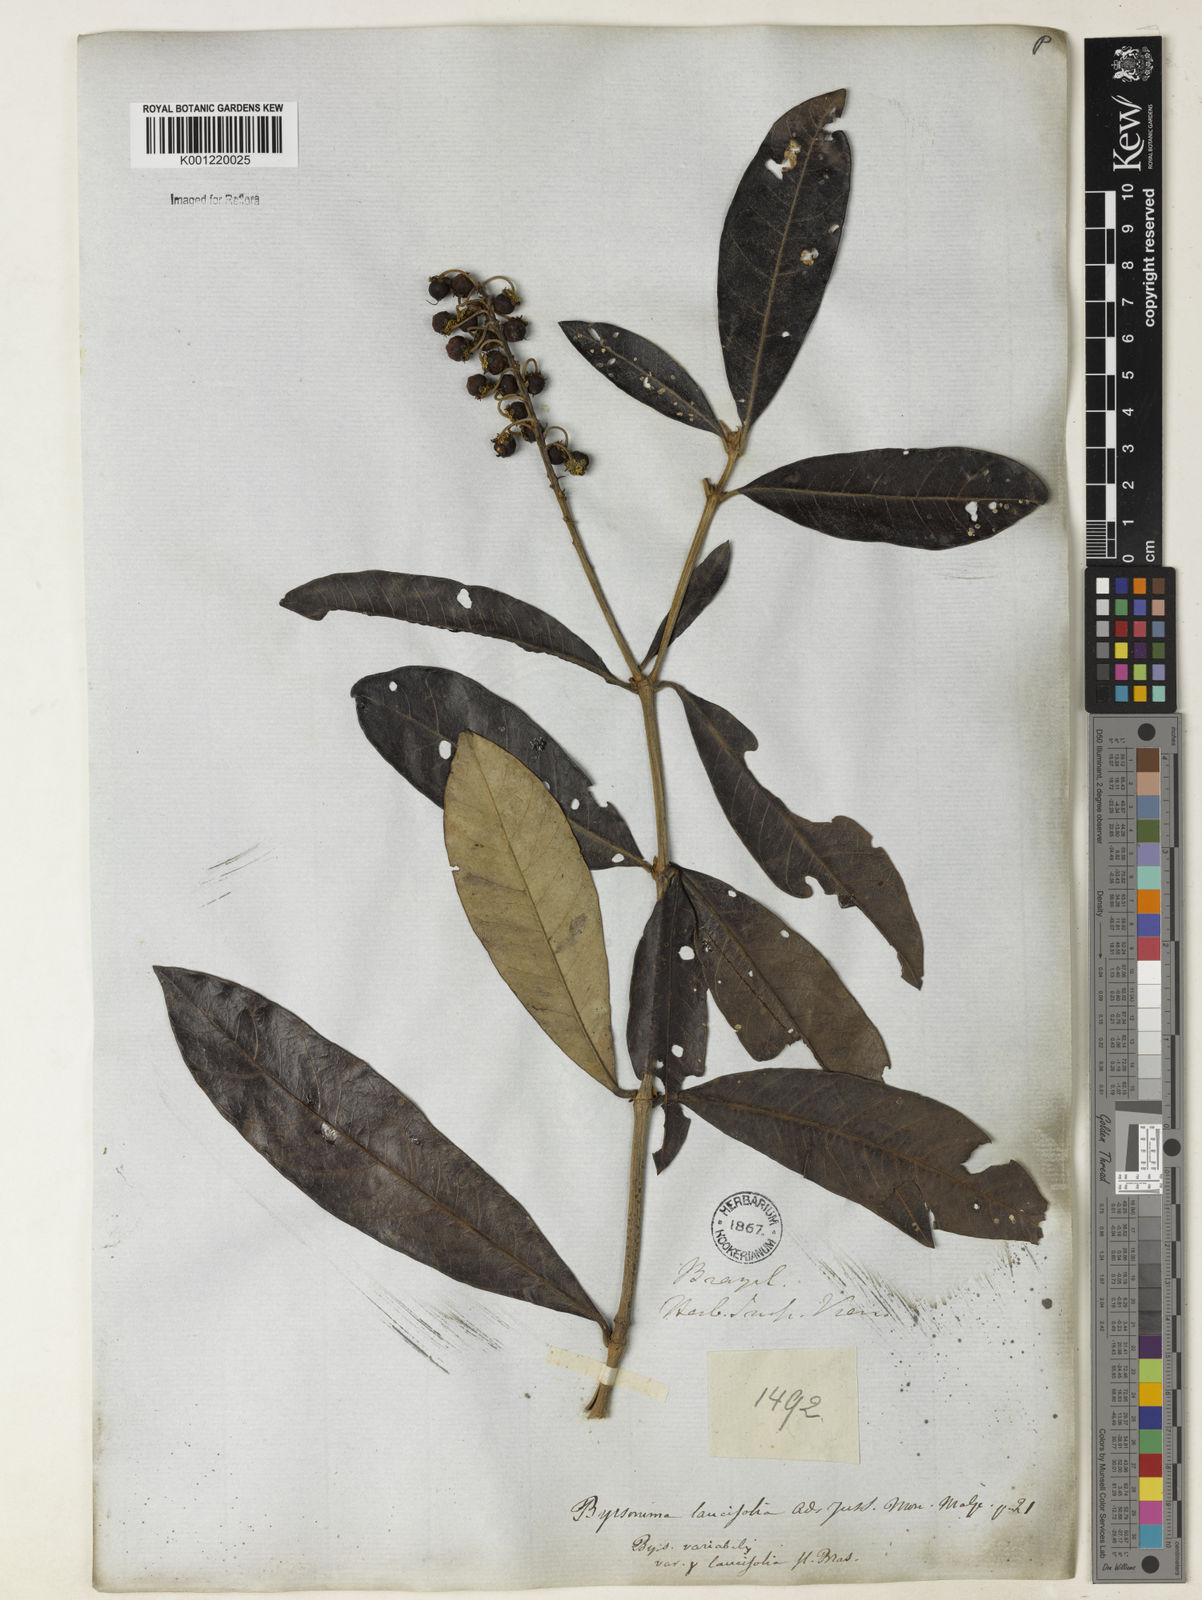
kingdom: Plantae
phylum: Tracheophyta
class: Magnoliopsida
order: Malpighiales
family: Malpighiaceae
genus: Byrsonima
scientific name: Byrsonima lancifolia
